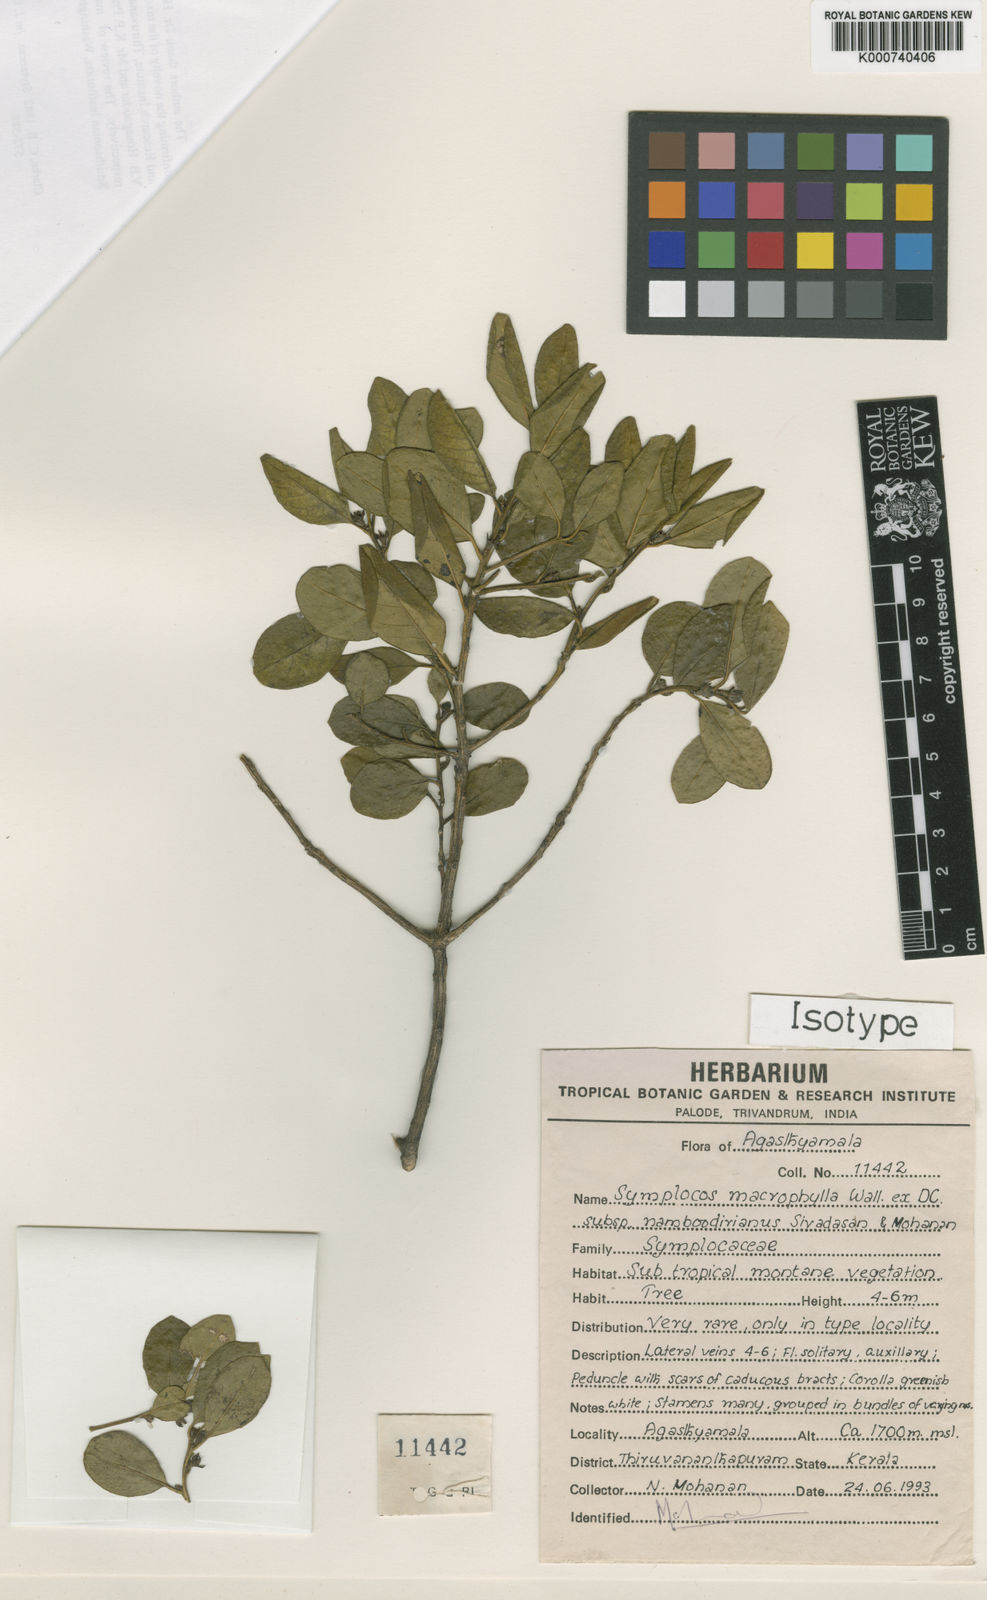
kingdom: Plantae
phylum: Tracheophyta
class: Magnoliopsida
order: Ericales
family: Symplocaceae
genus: Symplocos
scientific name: Symplocos
